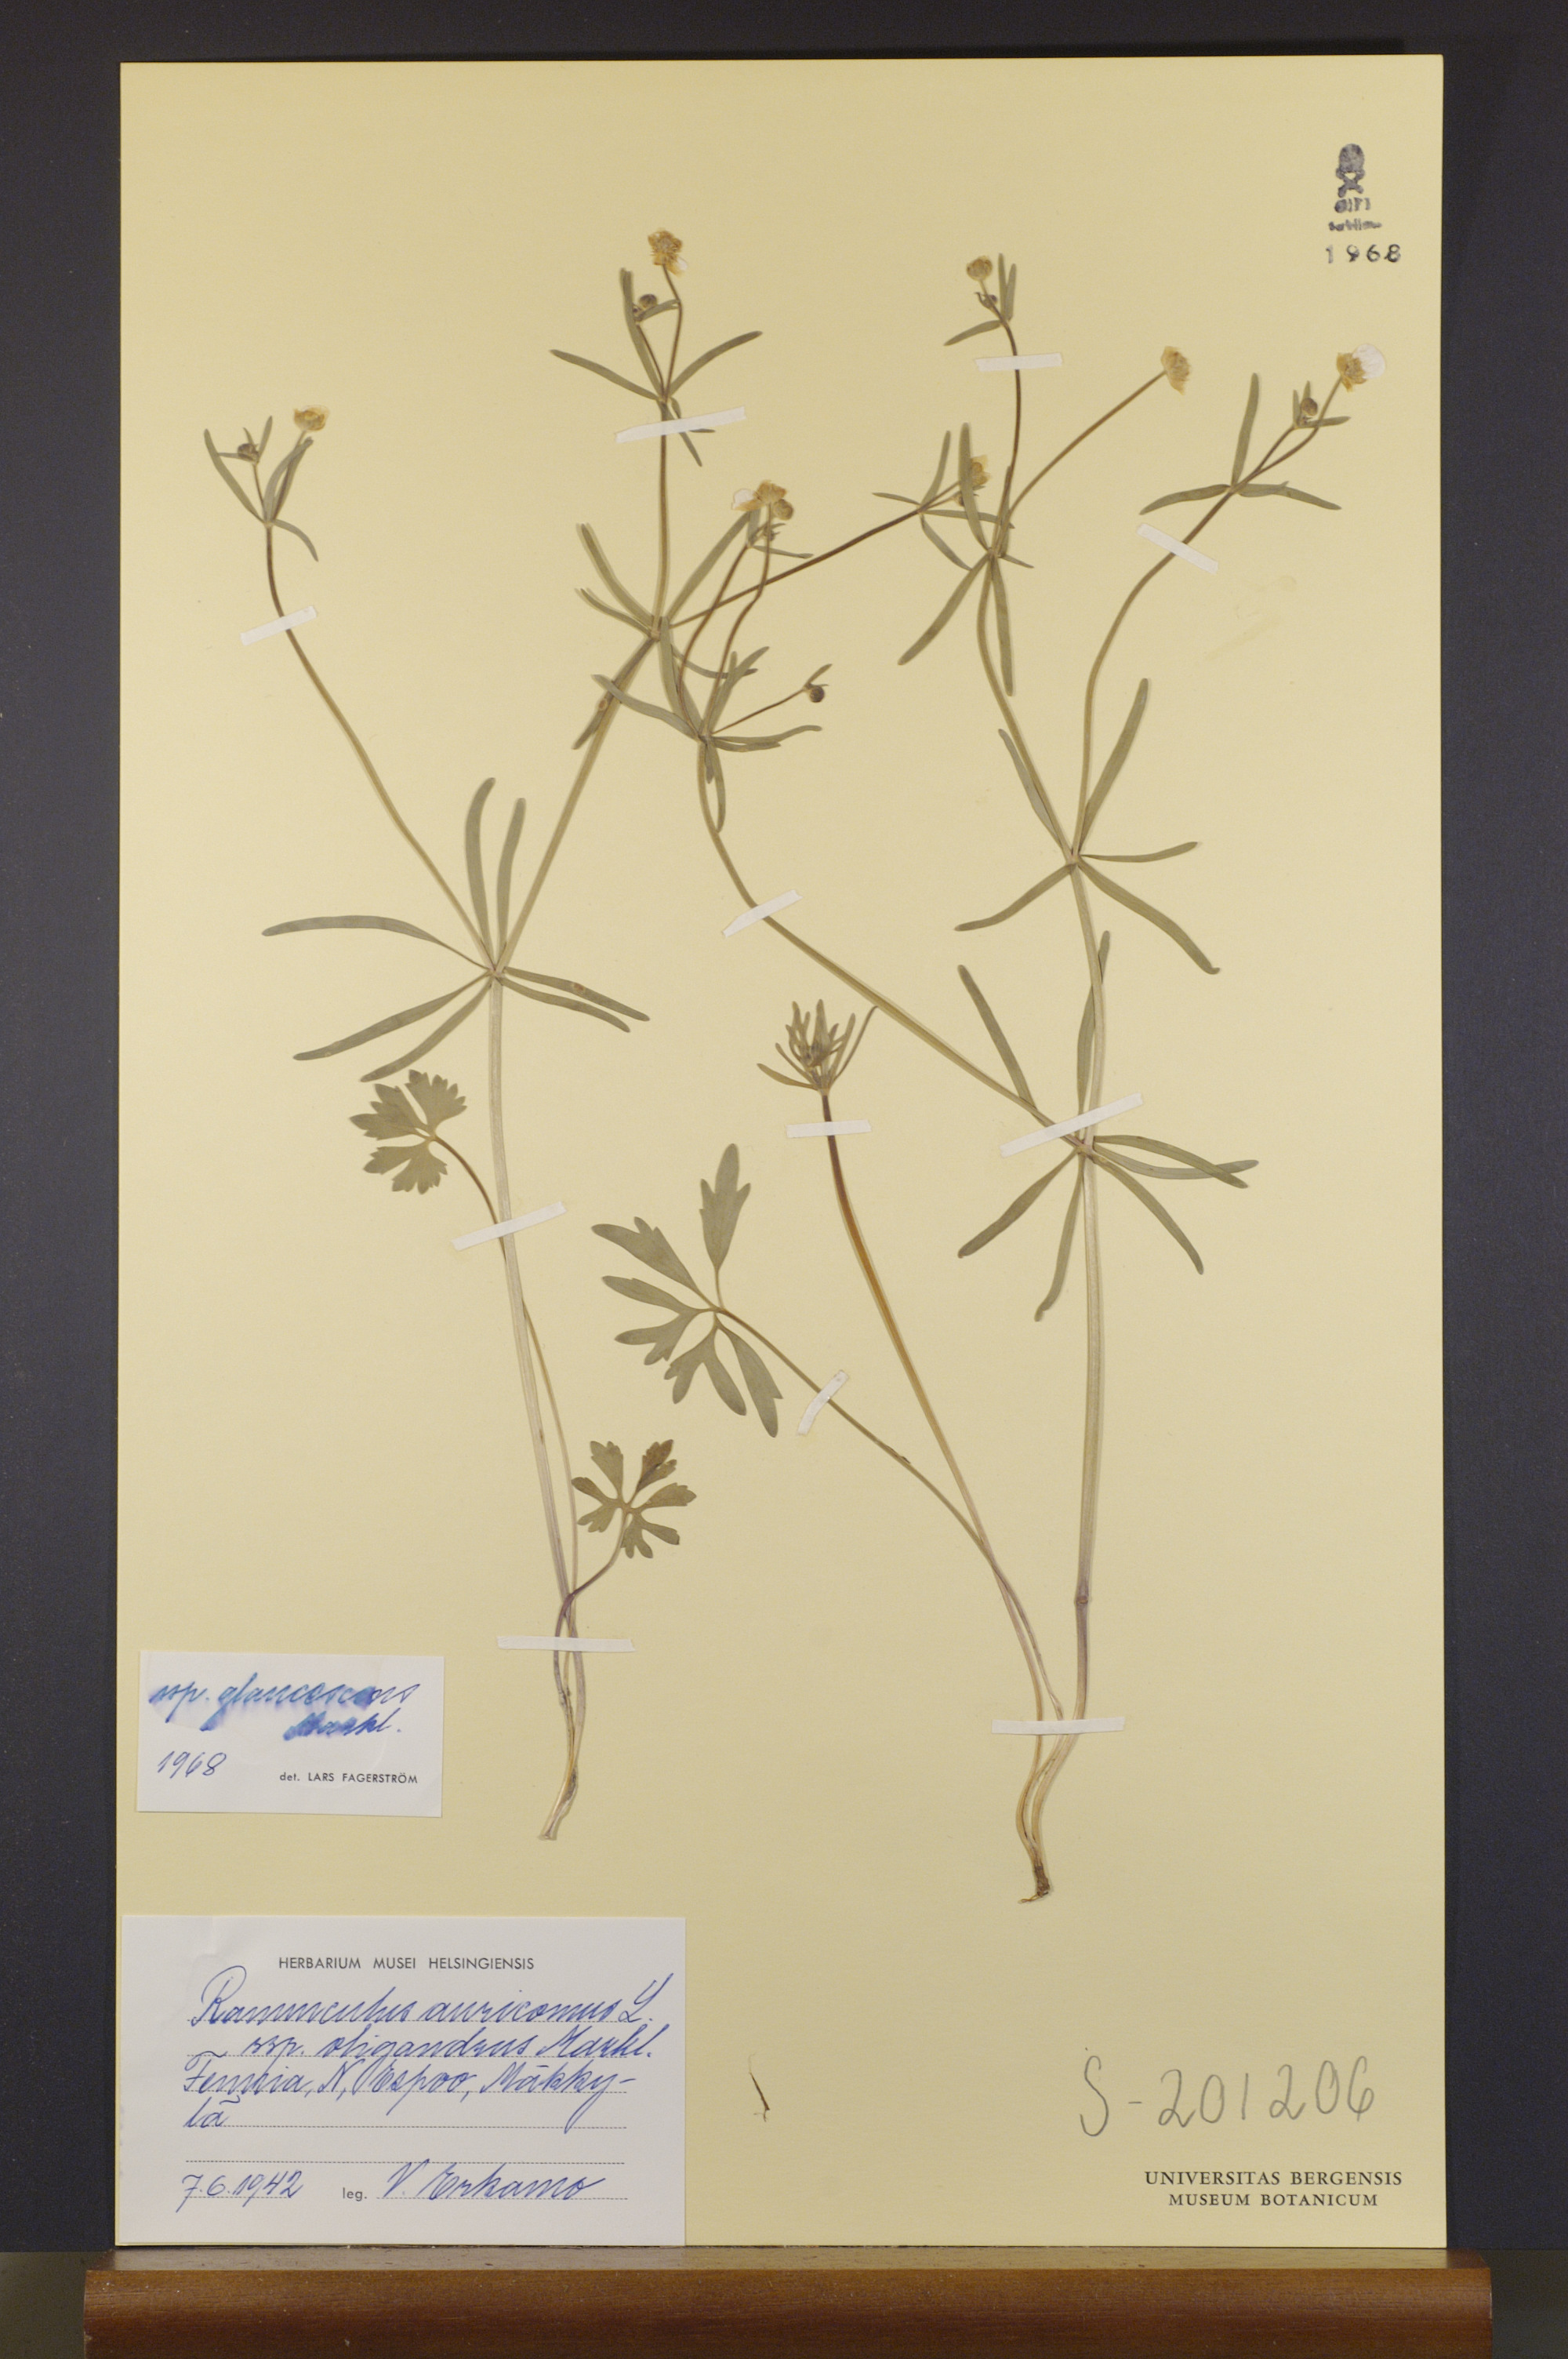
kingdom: Plantae
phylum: Tracheophyta
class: Magnoliopsida
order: Ranunculales
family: Ranunculaceae
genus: Ranunculus
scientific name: Ranunculus glaucescens
